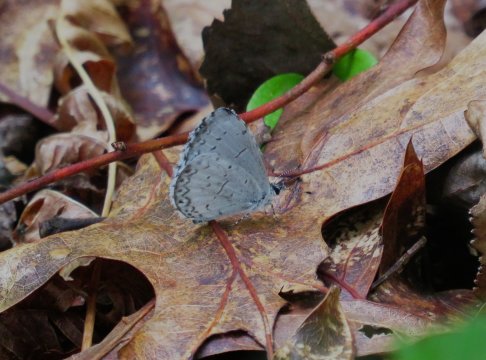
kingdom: Animalia
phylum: Arthropoda
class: Insecta
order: Lepidoptera
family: Lycaenidae
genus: Cyaniris
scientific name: Cyaniris neglecta
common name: Summer Azure
